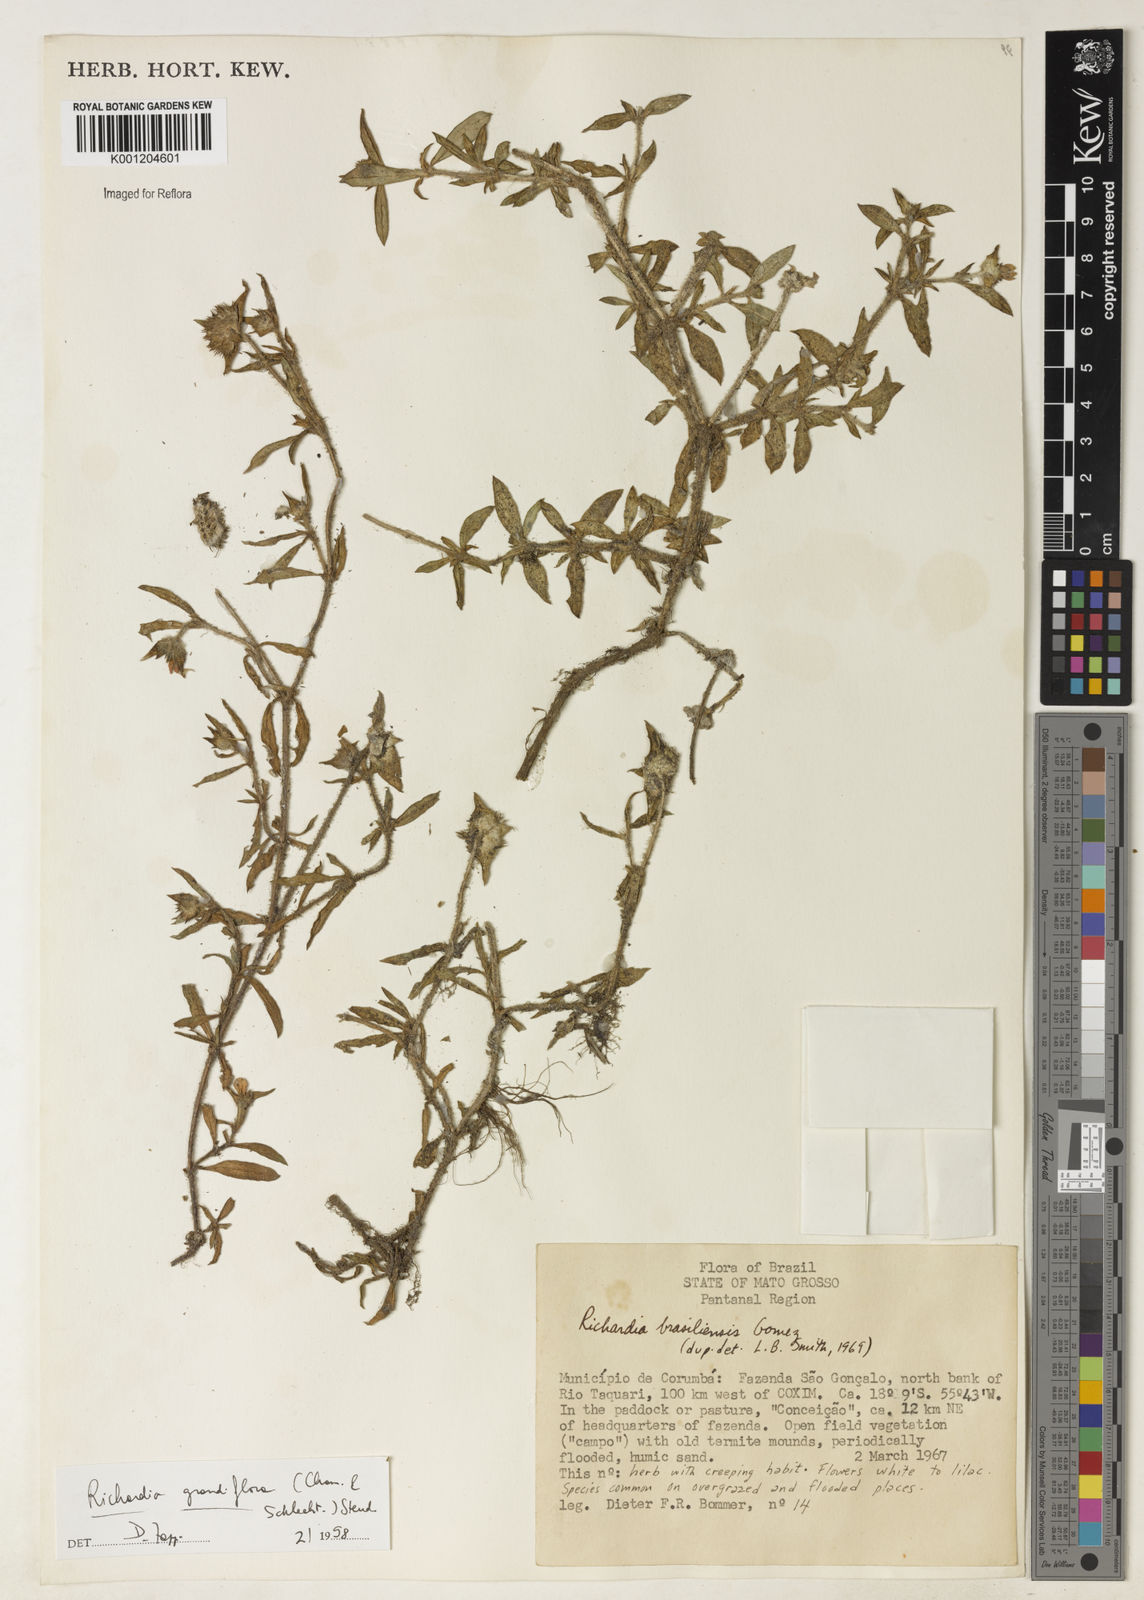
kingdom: Plantae
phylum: Tracheophyta
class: Magnoliopsida
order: Gentianales
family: Rubiaceae
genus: Richardia
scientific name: Richardia grandiflora
